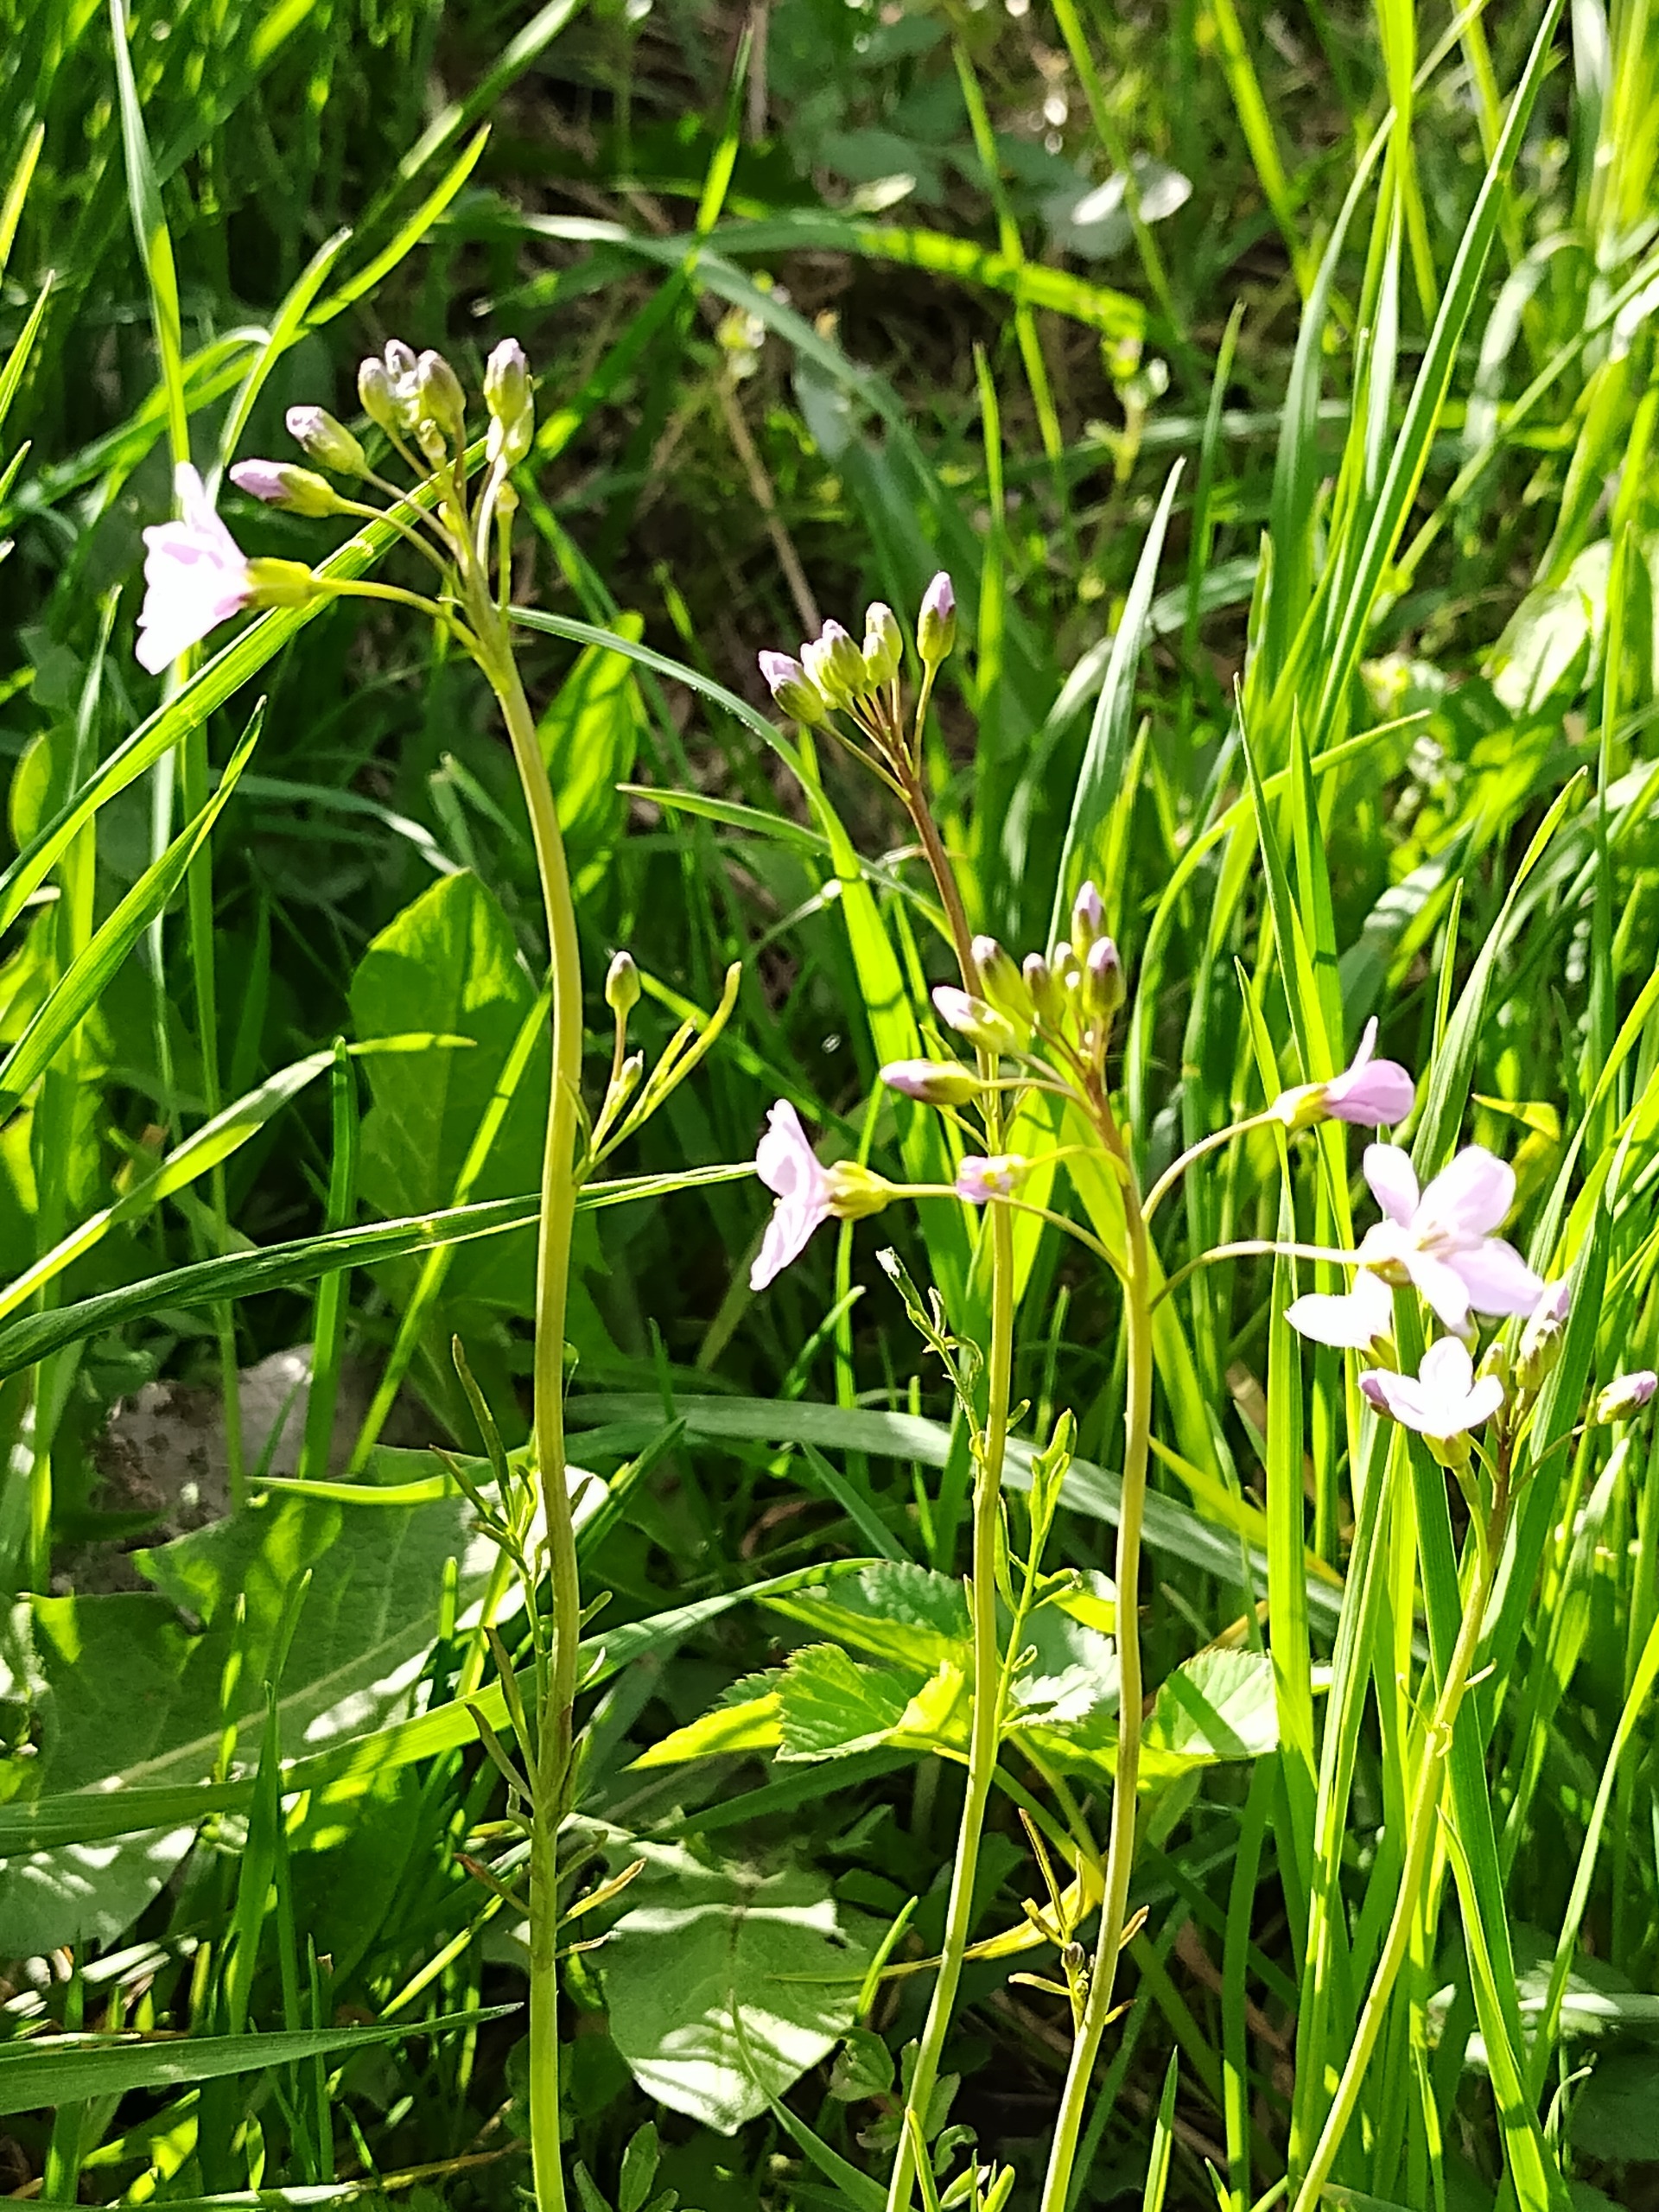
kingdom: Plantae
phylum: Tracheophyta
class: Magnoliopsida
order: Brassicales
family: Brassicaceae
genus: Cardamine
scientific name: Cardamine pratensis
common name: Engkarse
